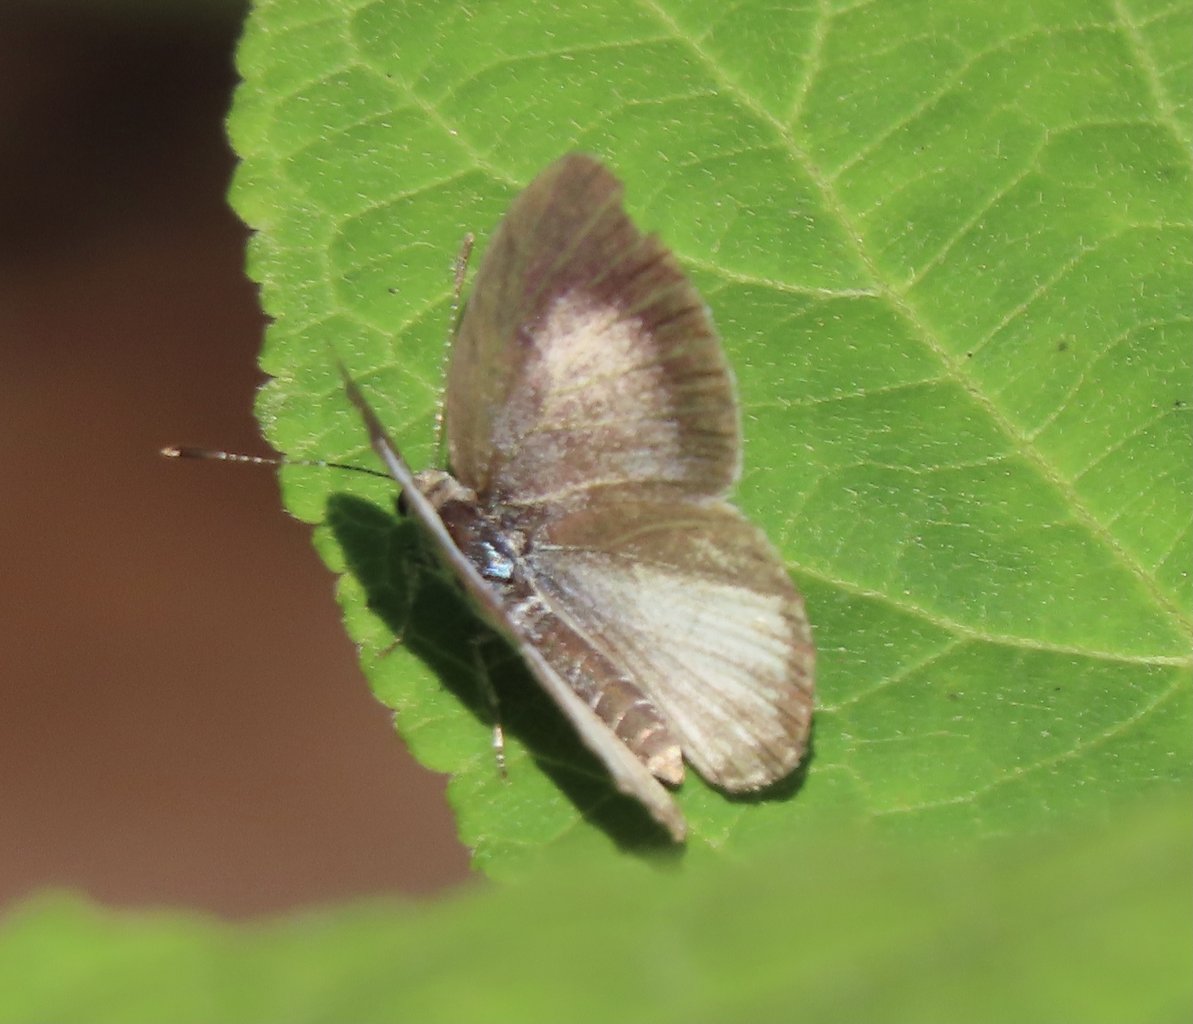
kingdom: Animalia
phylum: Arthropoda
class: Insecta
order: Lepidoptera
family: Lycaenidae
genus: Cyaniris
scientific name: Cyaniris neglecta
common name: Summer Azure
